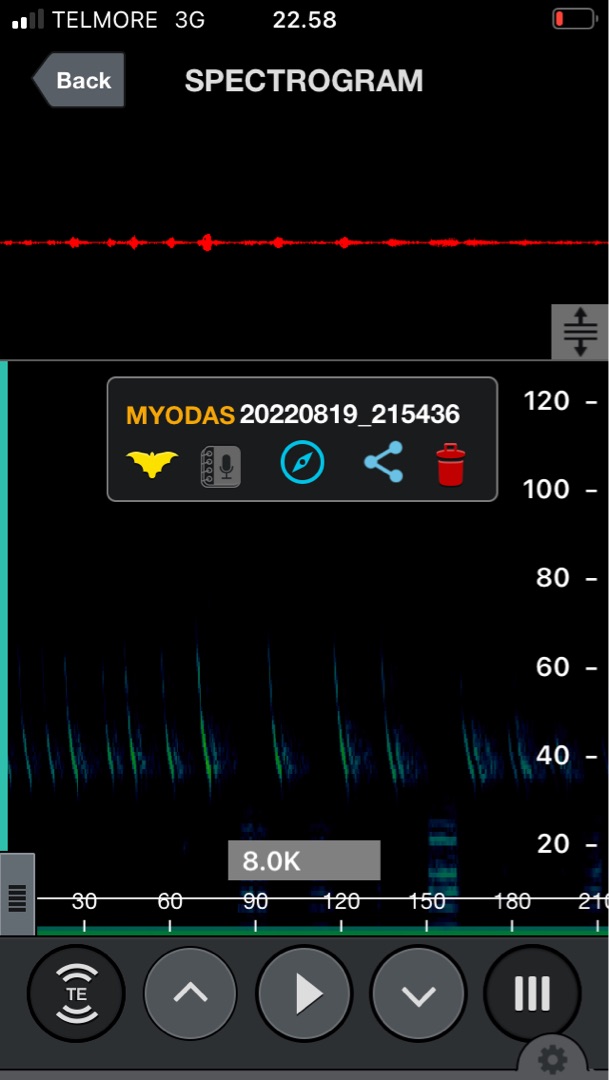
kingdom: Animalia
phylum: Chordata
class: Mammalia
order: Chiroptera
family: Vespertilionidae
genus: Myotis
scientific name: Myotis dasycneme
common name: Damflagermus
